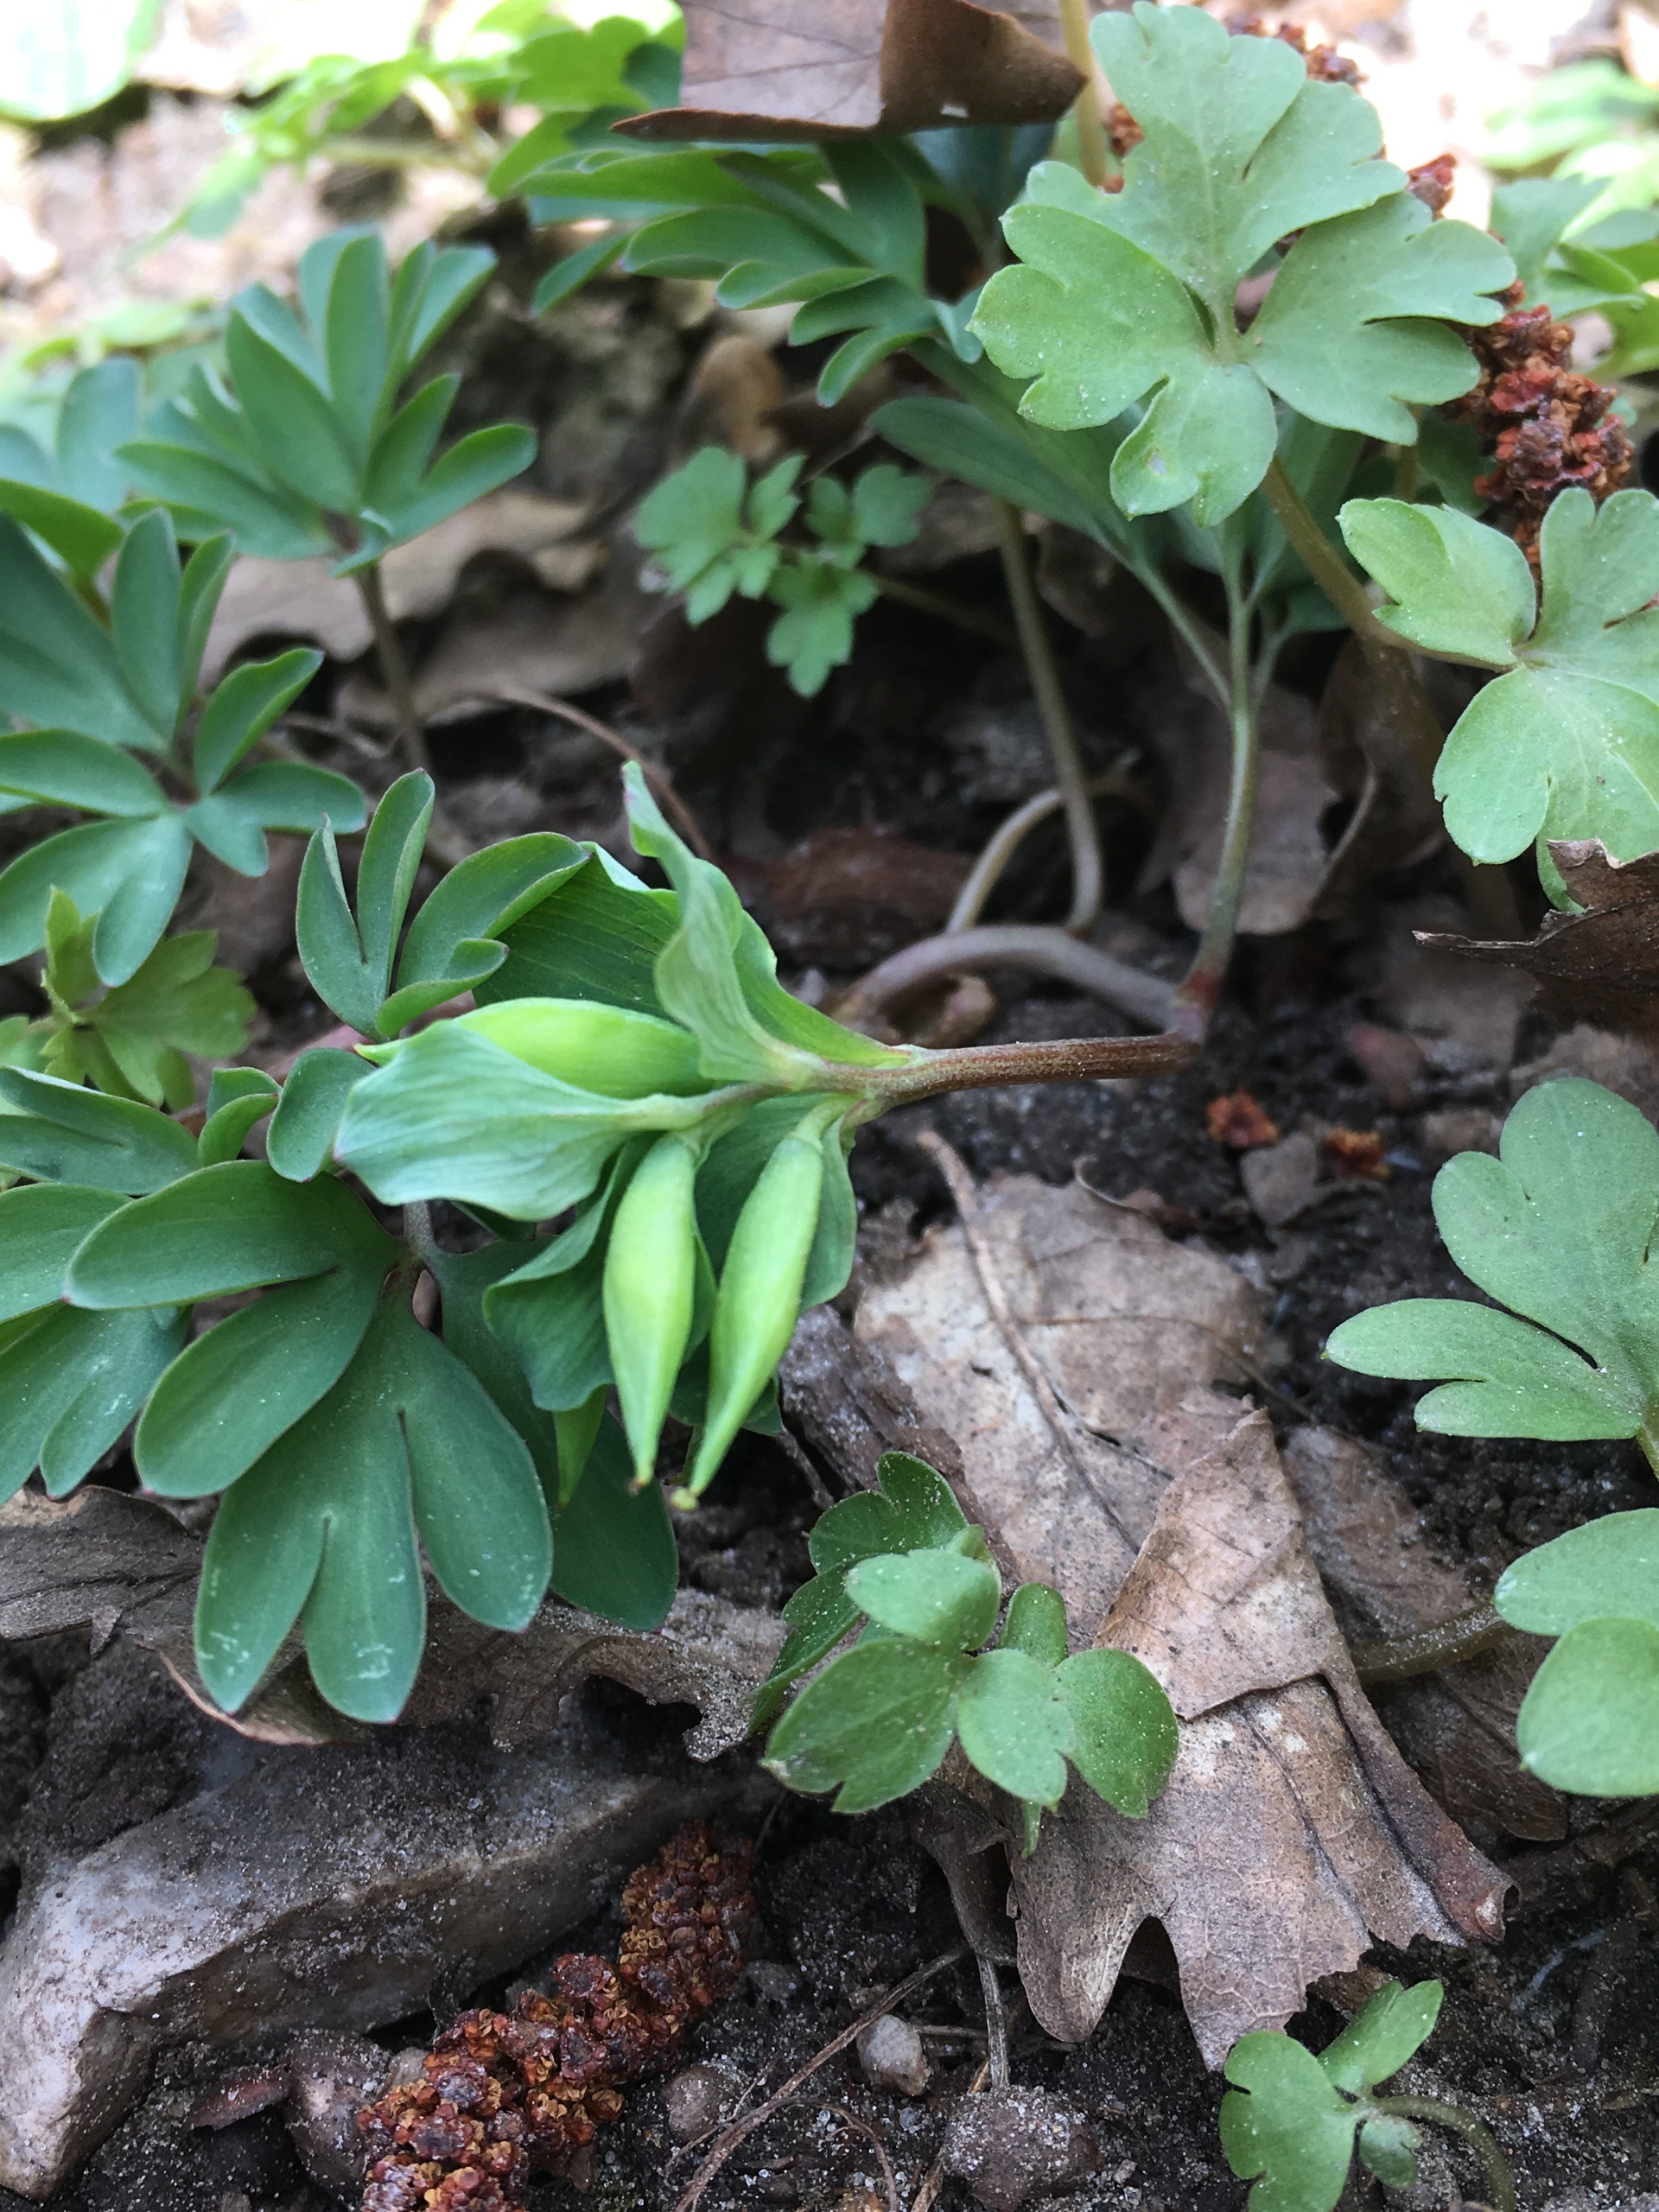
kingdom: Plantae
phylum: Tracheophyta
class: Magnoliopsida
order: Ranunculales
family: Papaveraceae
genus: Corydalis
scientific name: Corydalis intermedia
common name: Liden lærkespore
